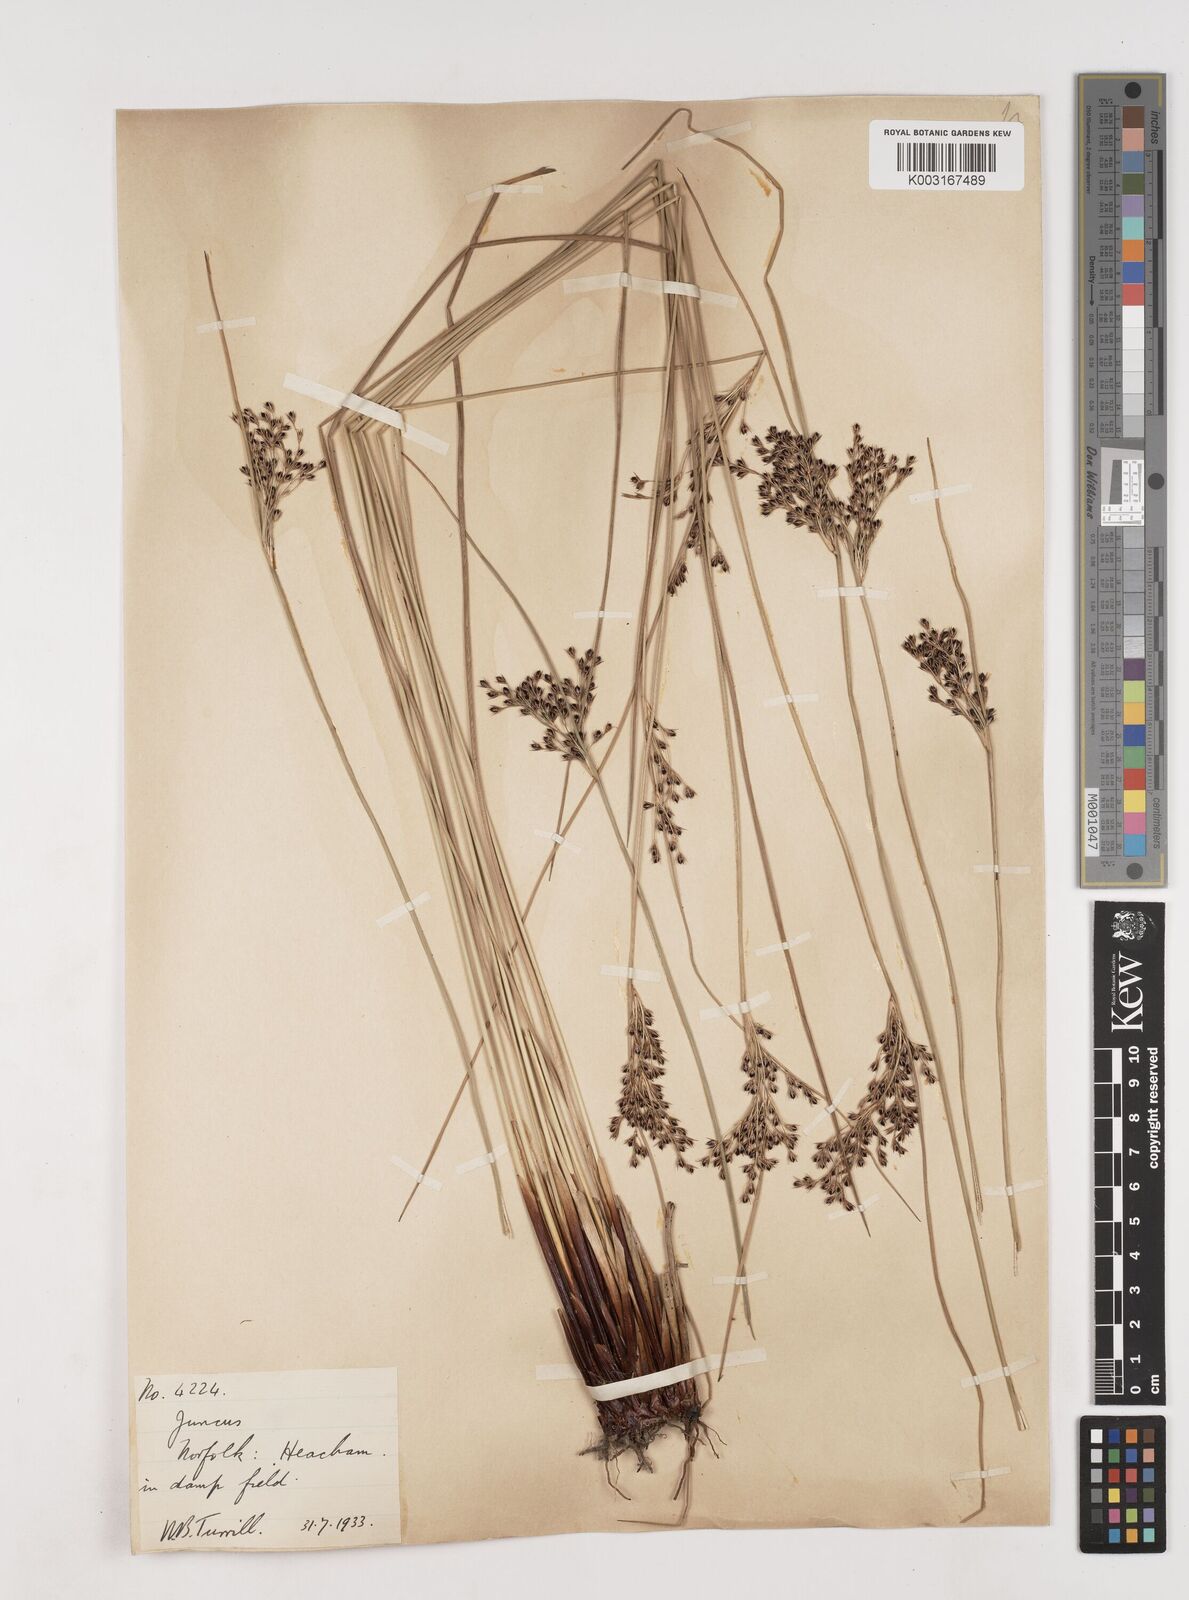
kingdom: Plantae
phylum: Tracheophyta
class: Liliopsida
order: Poales
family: Juncaceae
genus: Juncus
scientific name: Juncus inflexus
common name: Hard rush
